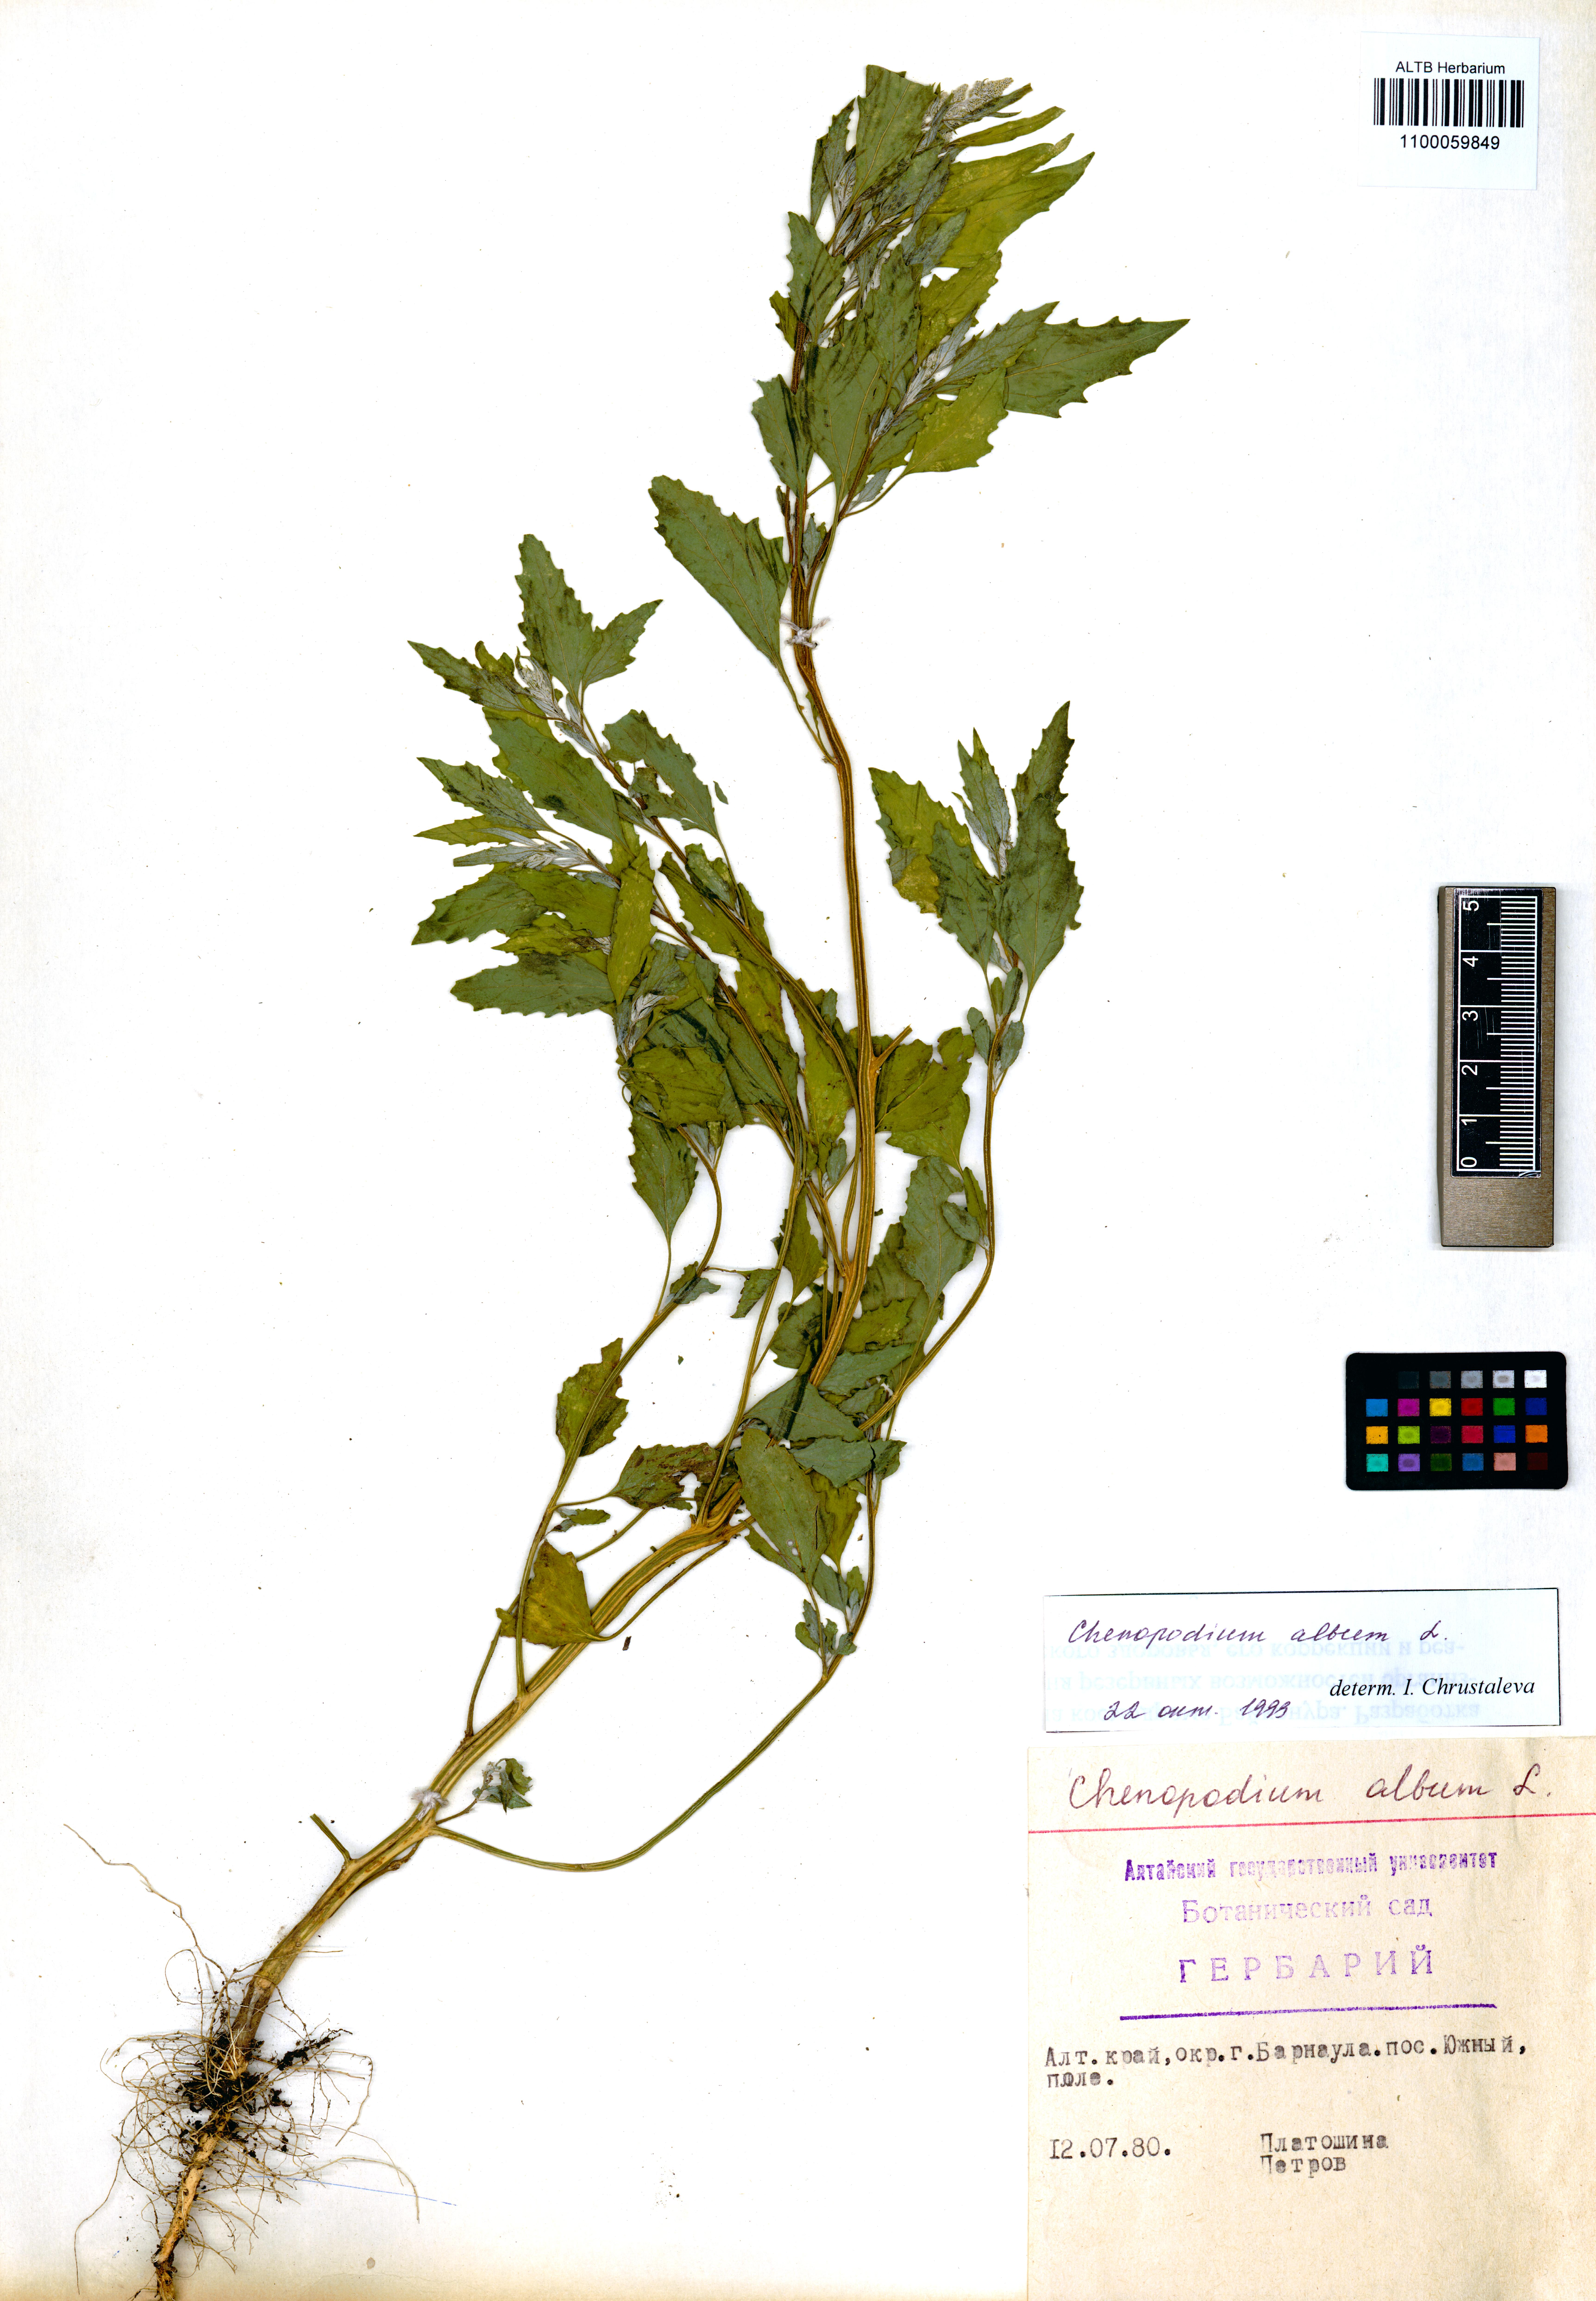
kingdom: Plantae
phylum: Tracheophyta
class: Magnoliopsida
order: Caryophyllales
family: Amaranthaceae
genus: Chenopodium
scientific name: Chenopodium album
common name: Fat-hen
